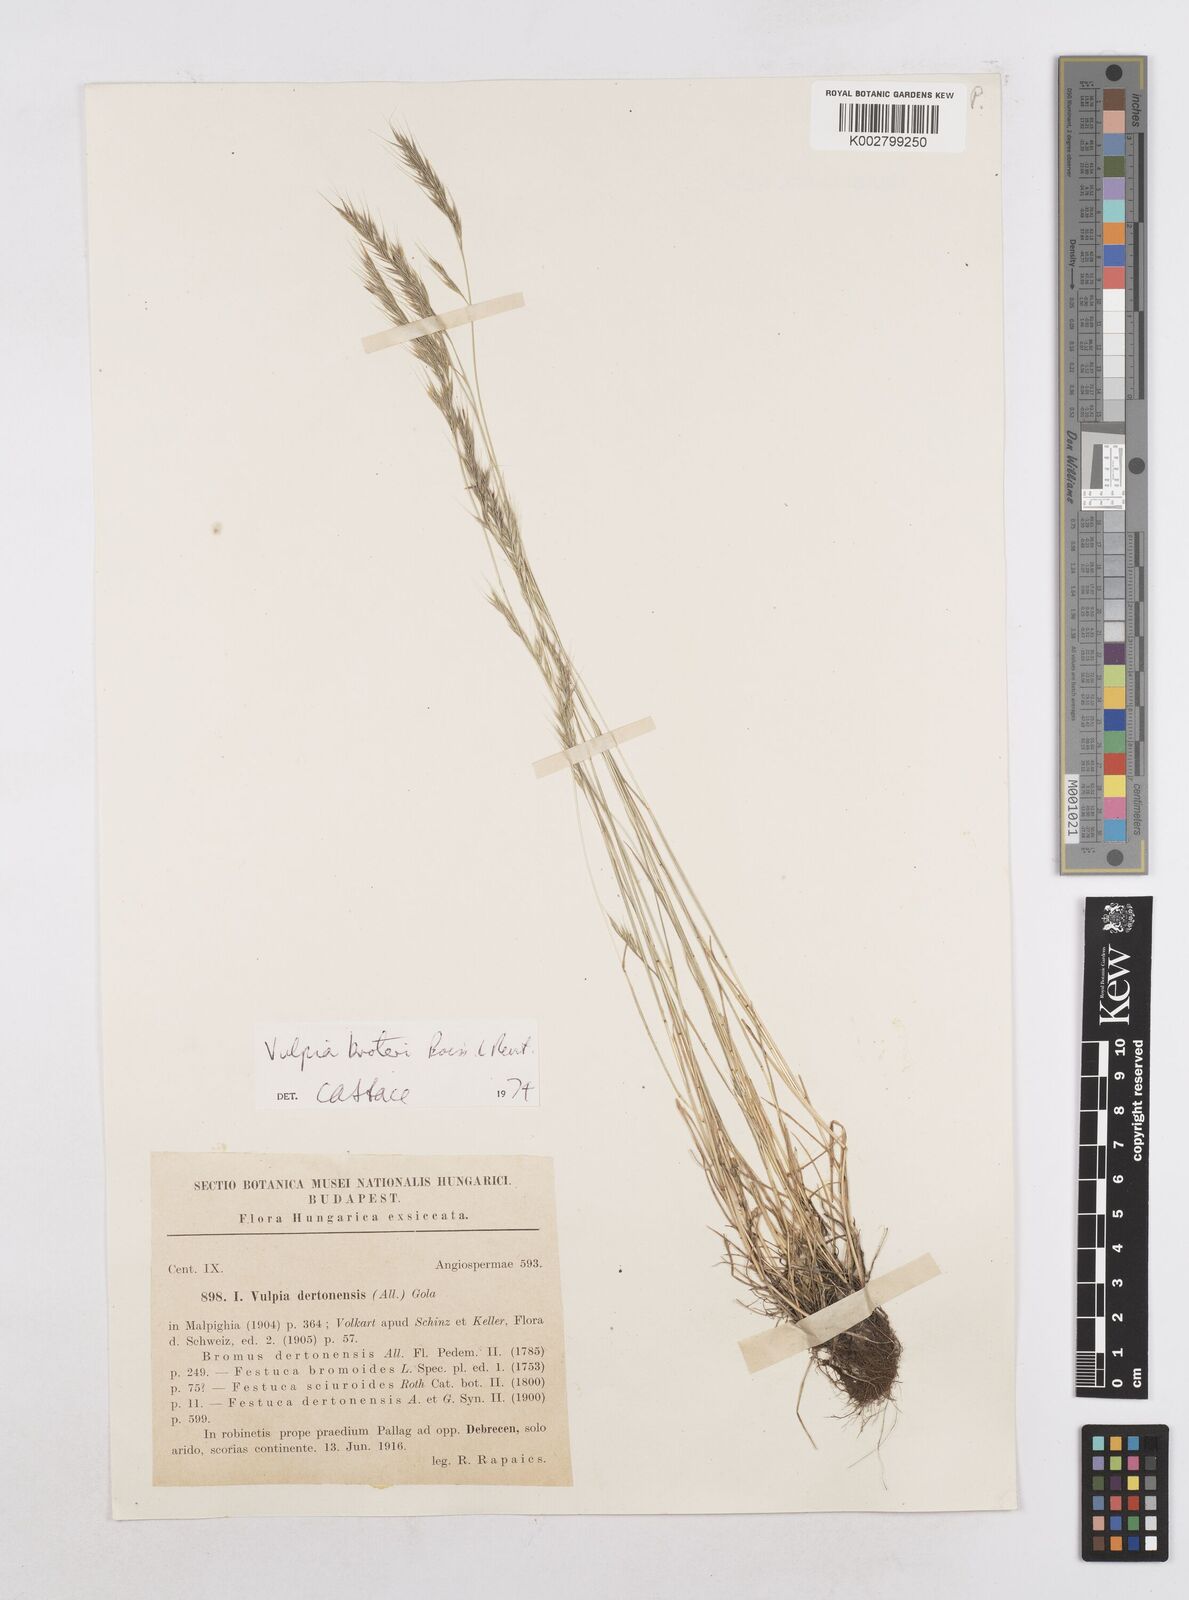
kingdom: Plantae
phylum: Tracheophyta
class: Liliopsida
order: Poales
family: Poaceae
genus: Festuca
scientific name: Festuca muralis
